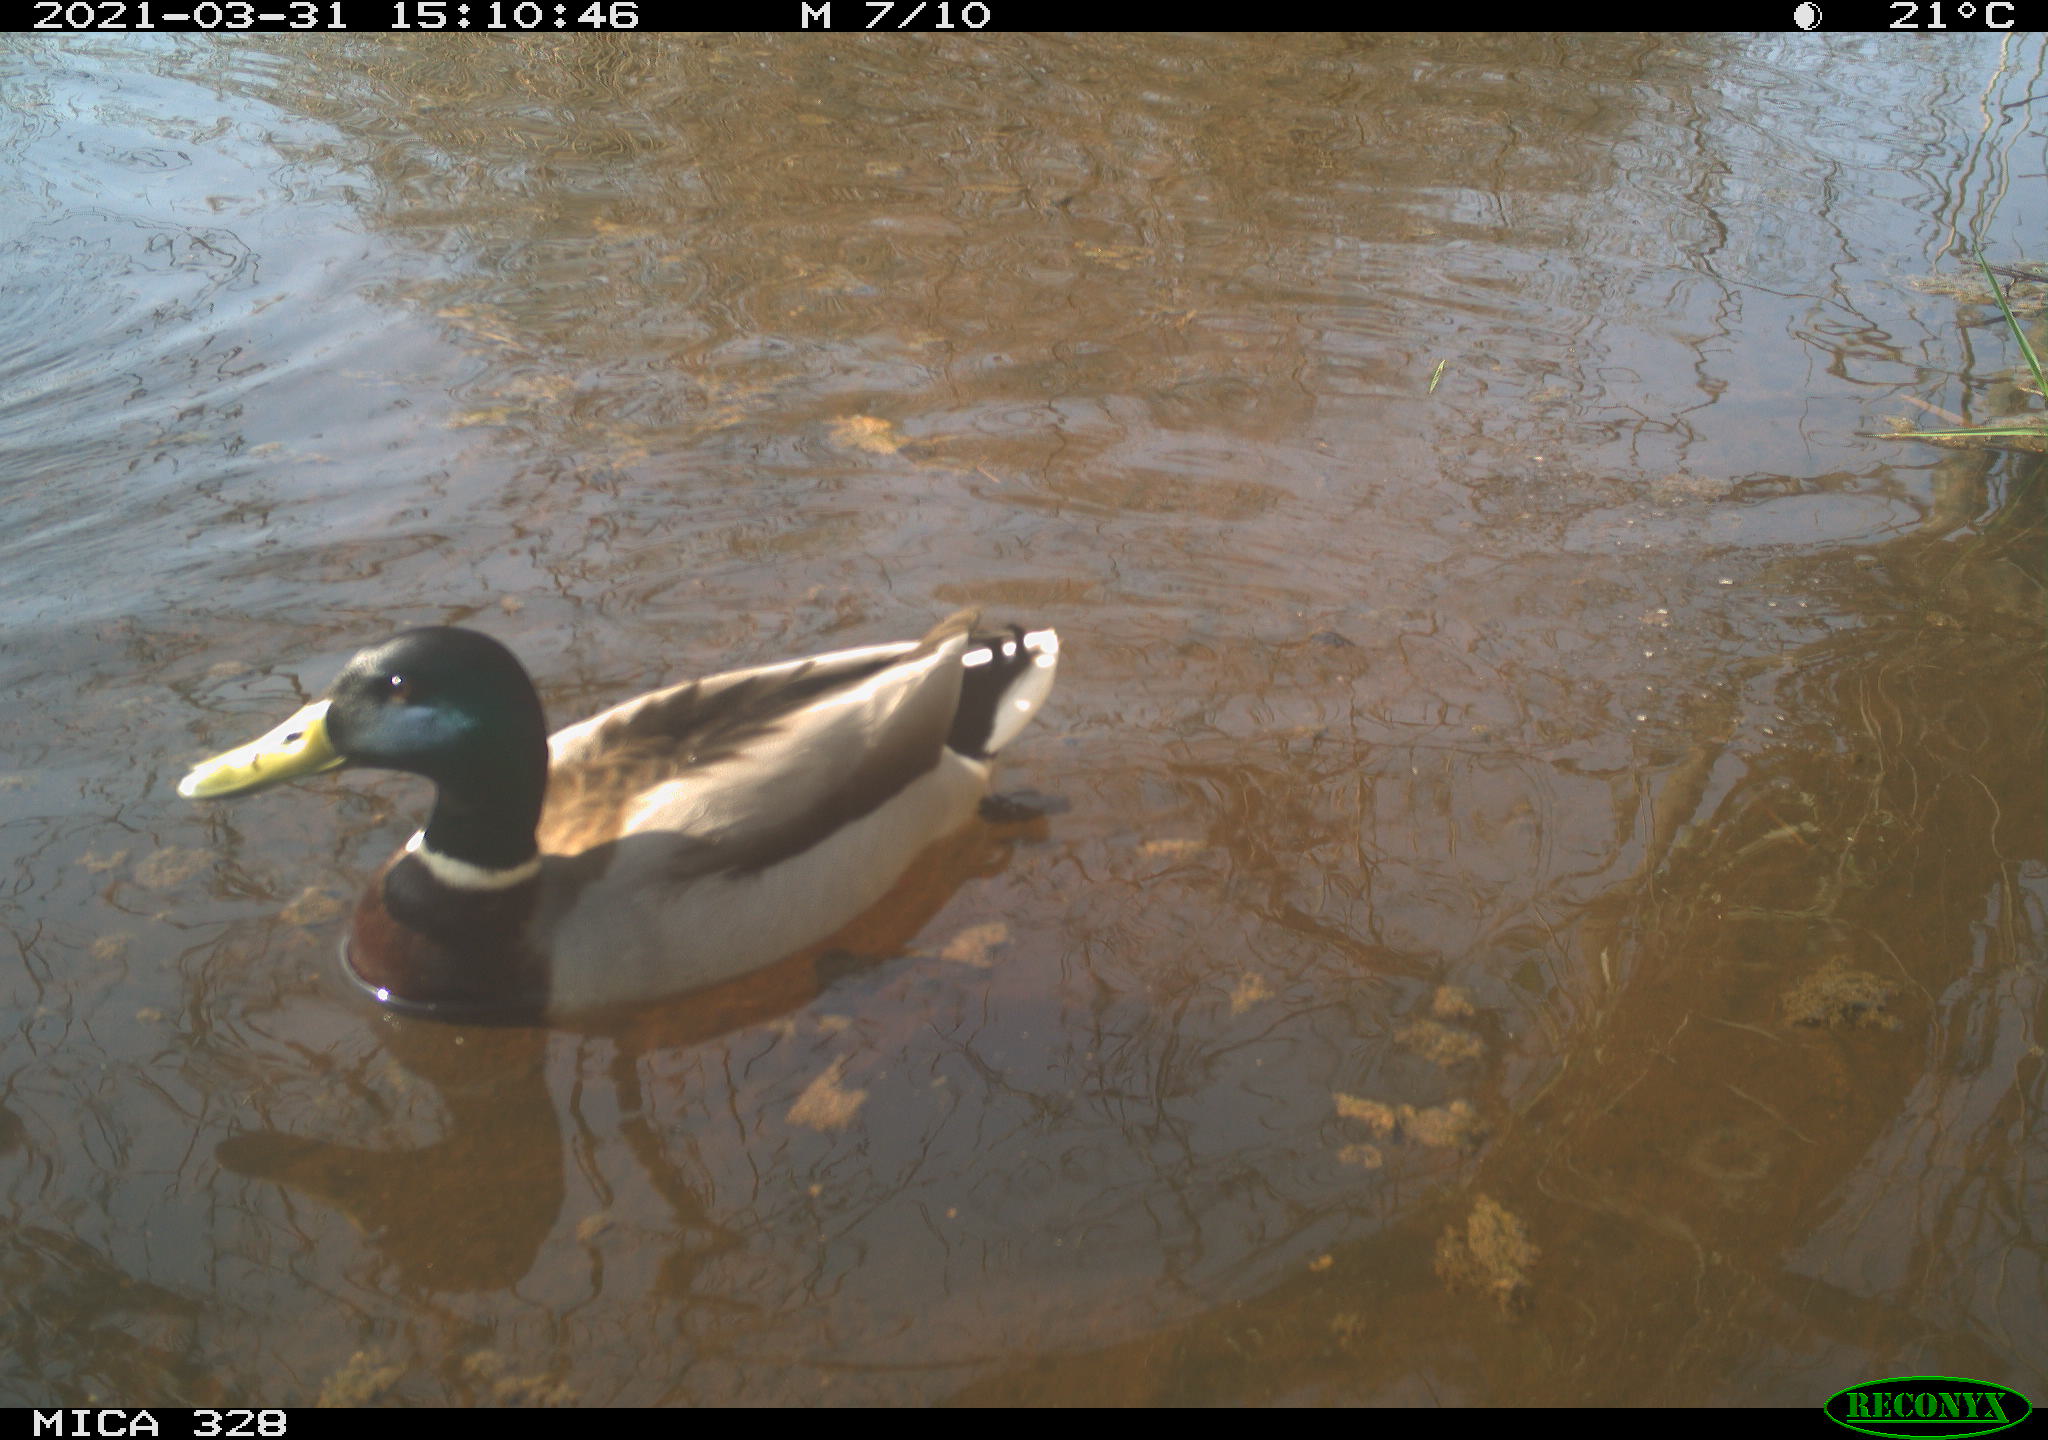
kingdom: Animalia
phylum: Chordata
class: Aves
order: Anseriformes
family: Anatidae
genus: Anas
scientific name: Anas platyrhynchos
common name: Mallard
